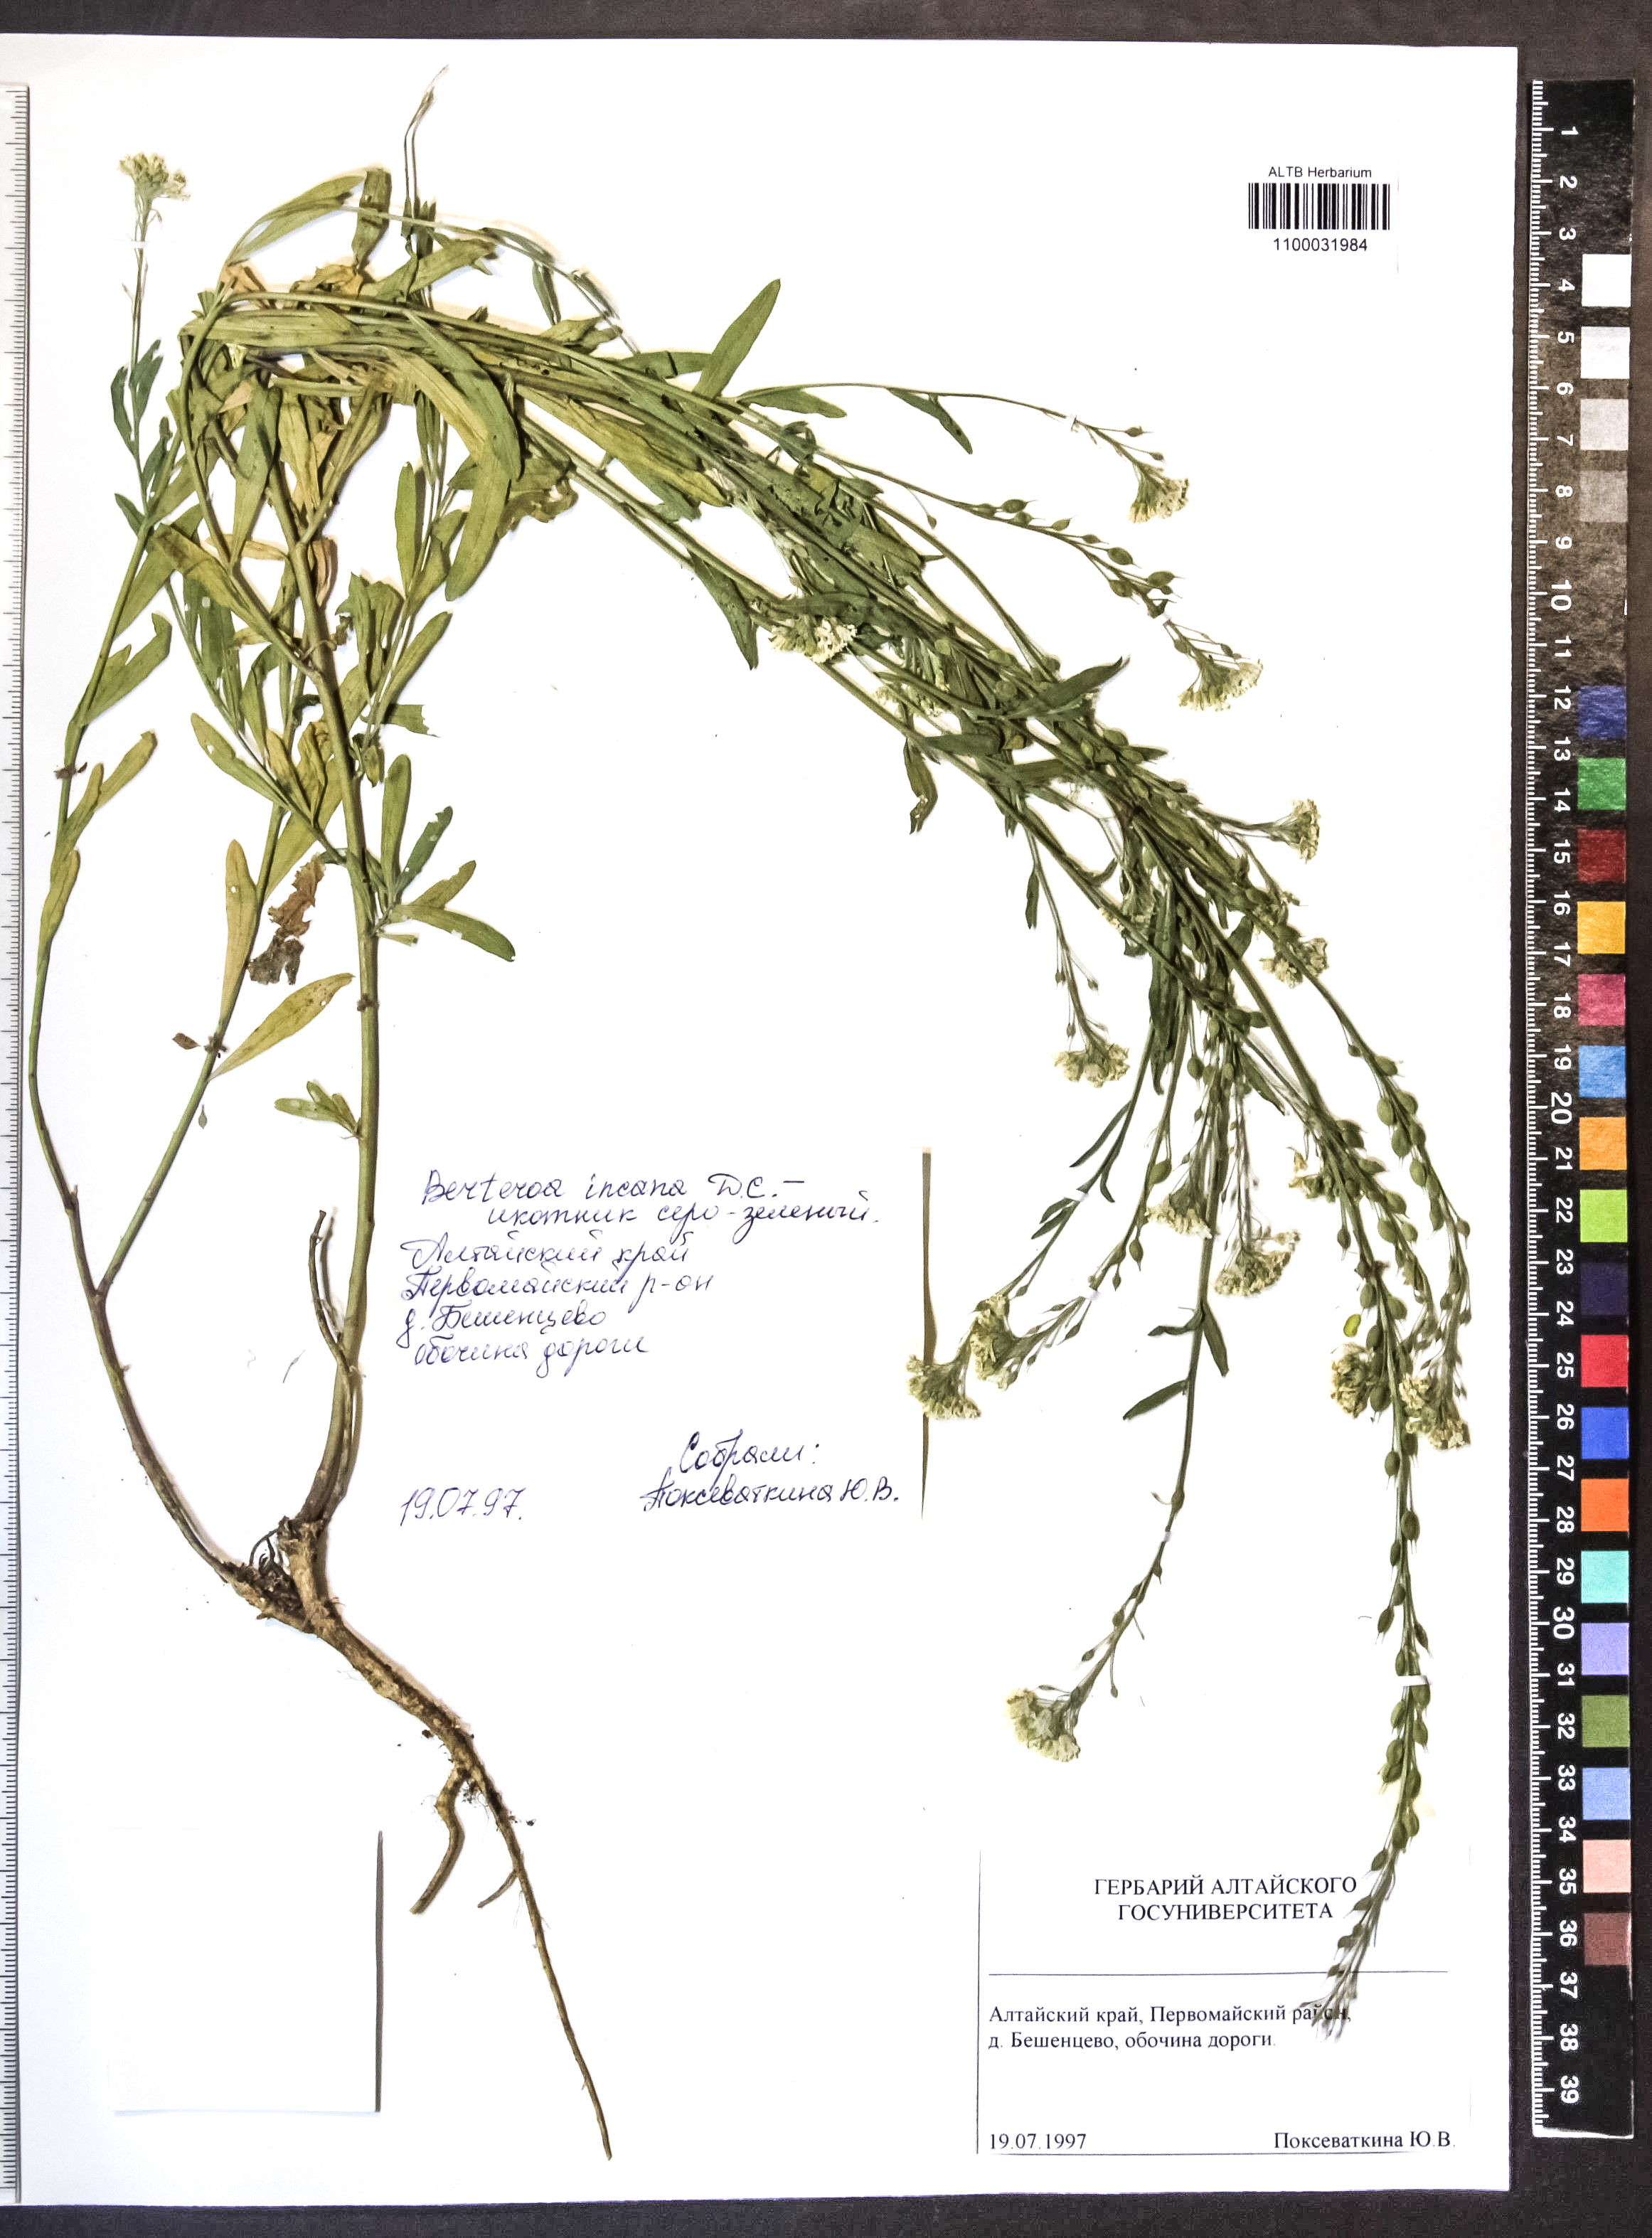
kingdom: Plantae
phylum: Tracheophyta
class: Magnoliopsida
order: Brassicales
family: Brassicaceae
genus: Berteroa
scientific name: Berteroa incana
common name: Hoary alison
